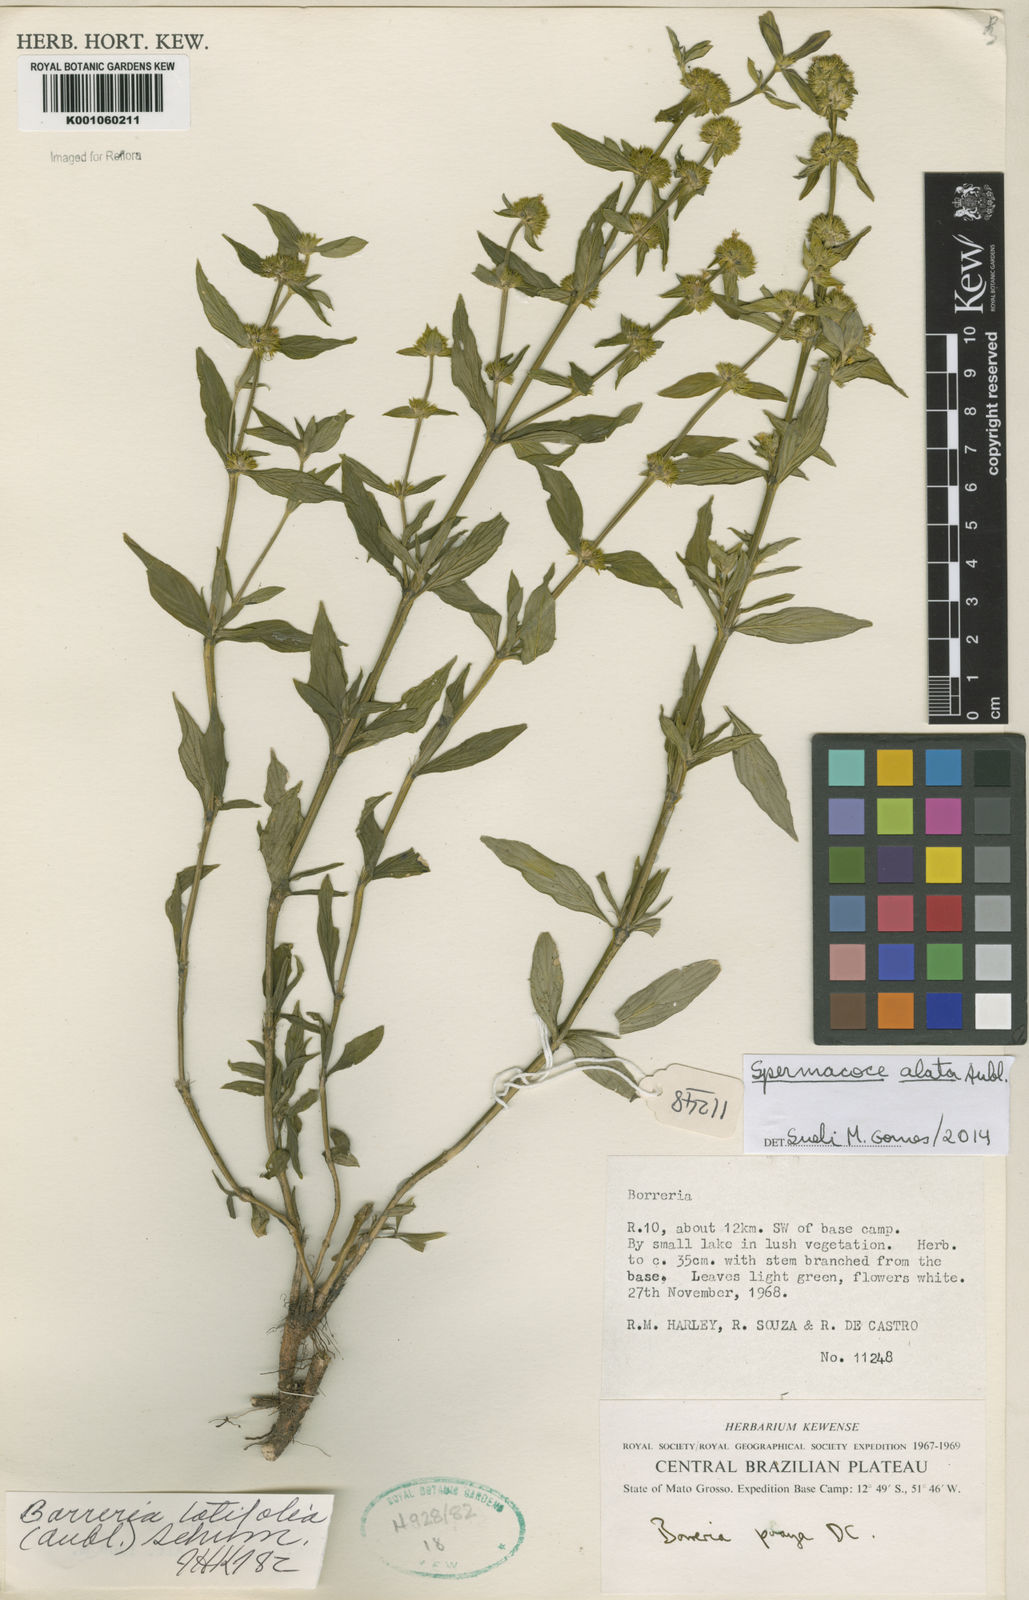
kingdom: Plantae
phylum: Tracheophyta
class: Magnoliopsida
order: Gentianales
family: Rubiaceae
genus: Spermacoce
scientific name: Spermacoce
